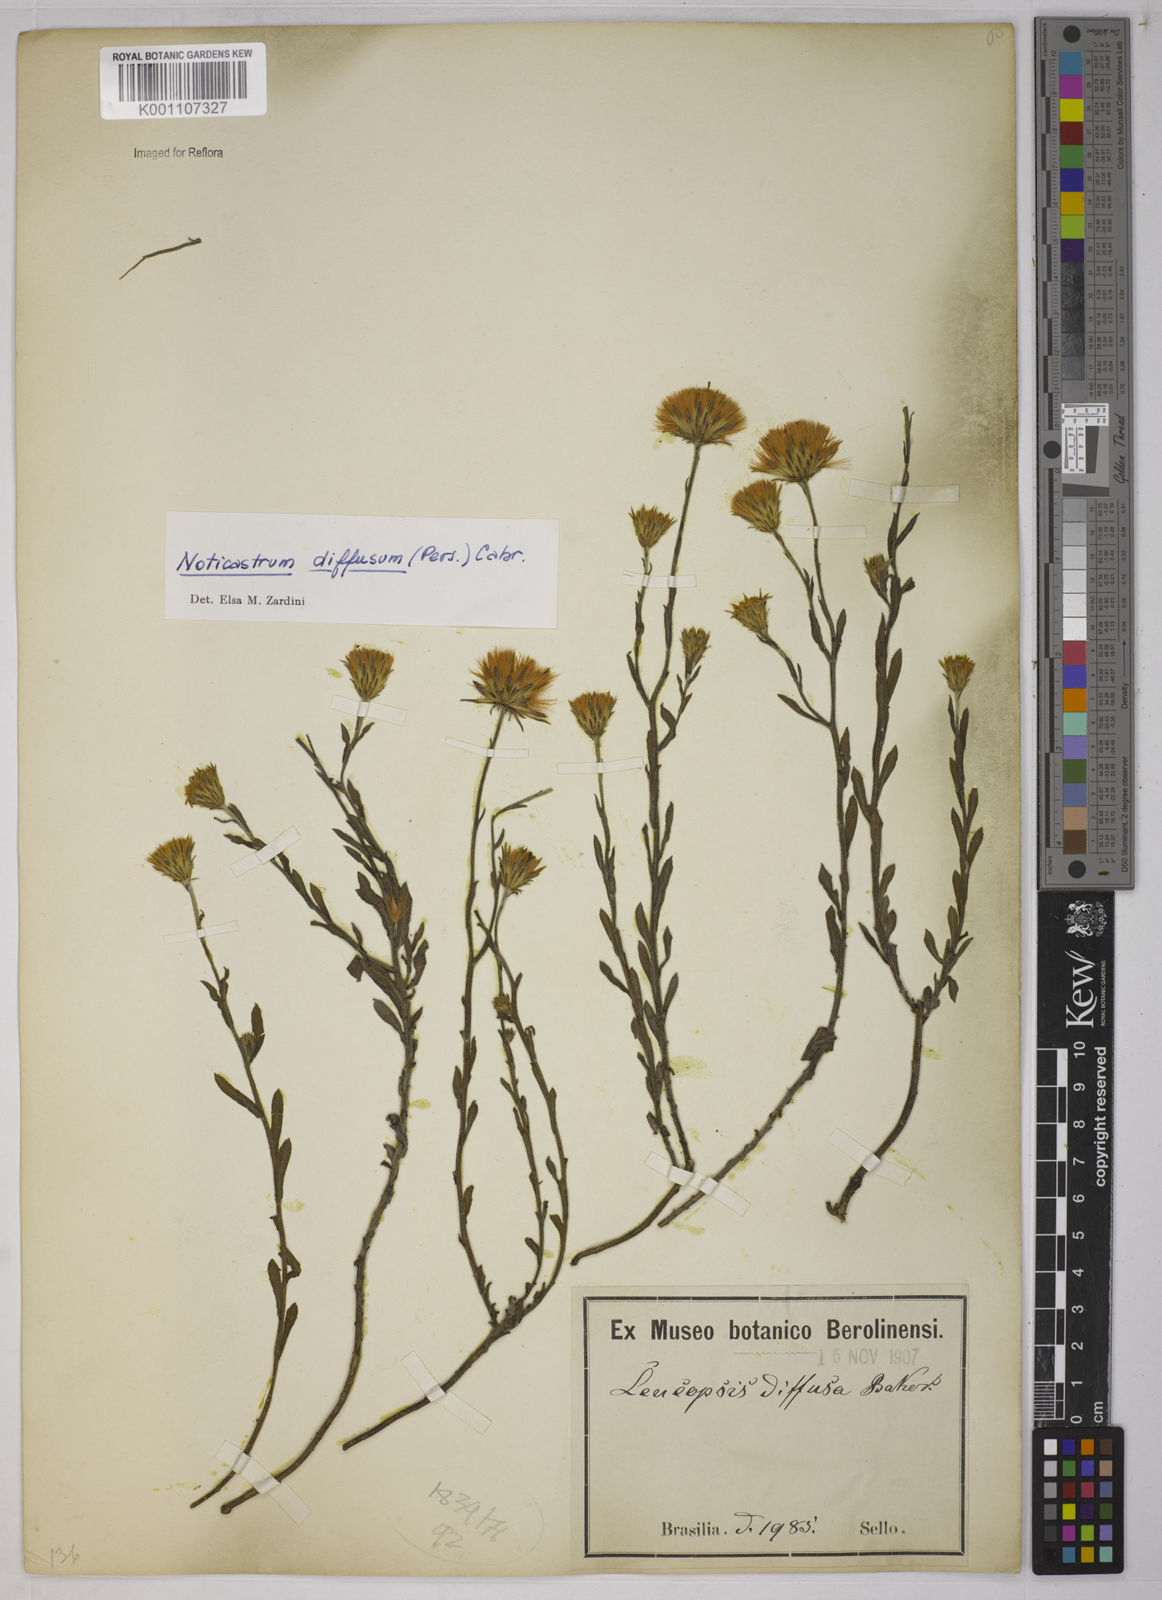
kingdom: Plantae
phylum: Tracheophyta
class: Magnoliopsida
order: Asterales
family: Asteraceae
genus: Noticastrum
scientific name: Noticastrum diffusum
